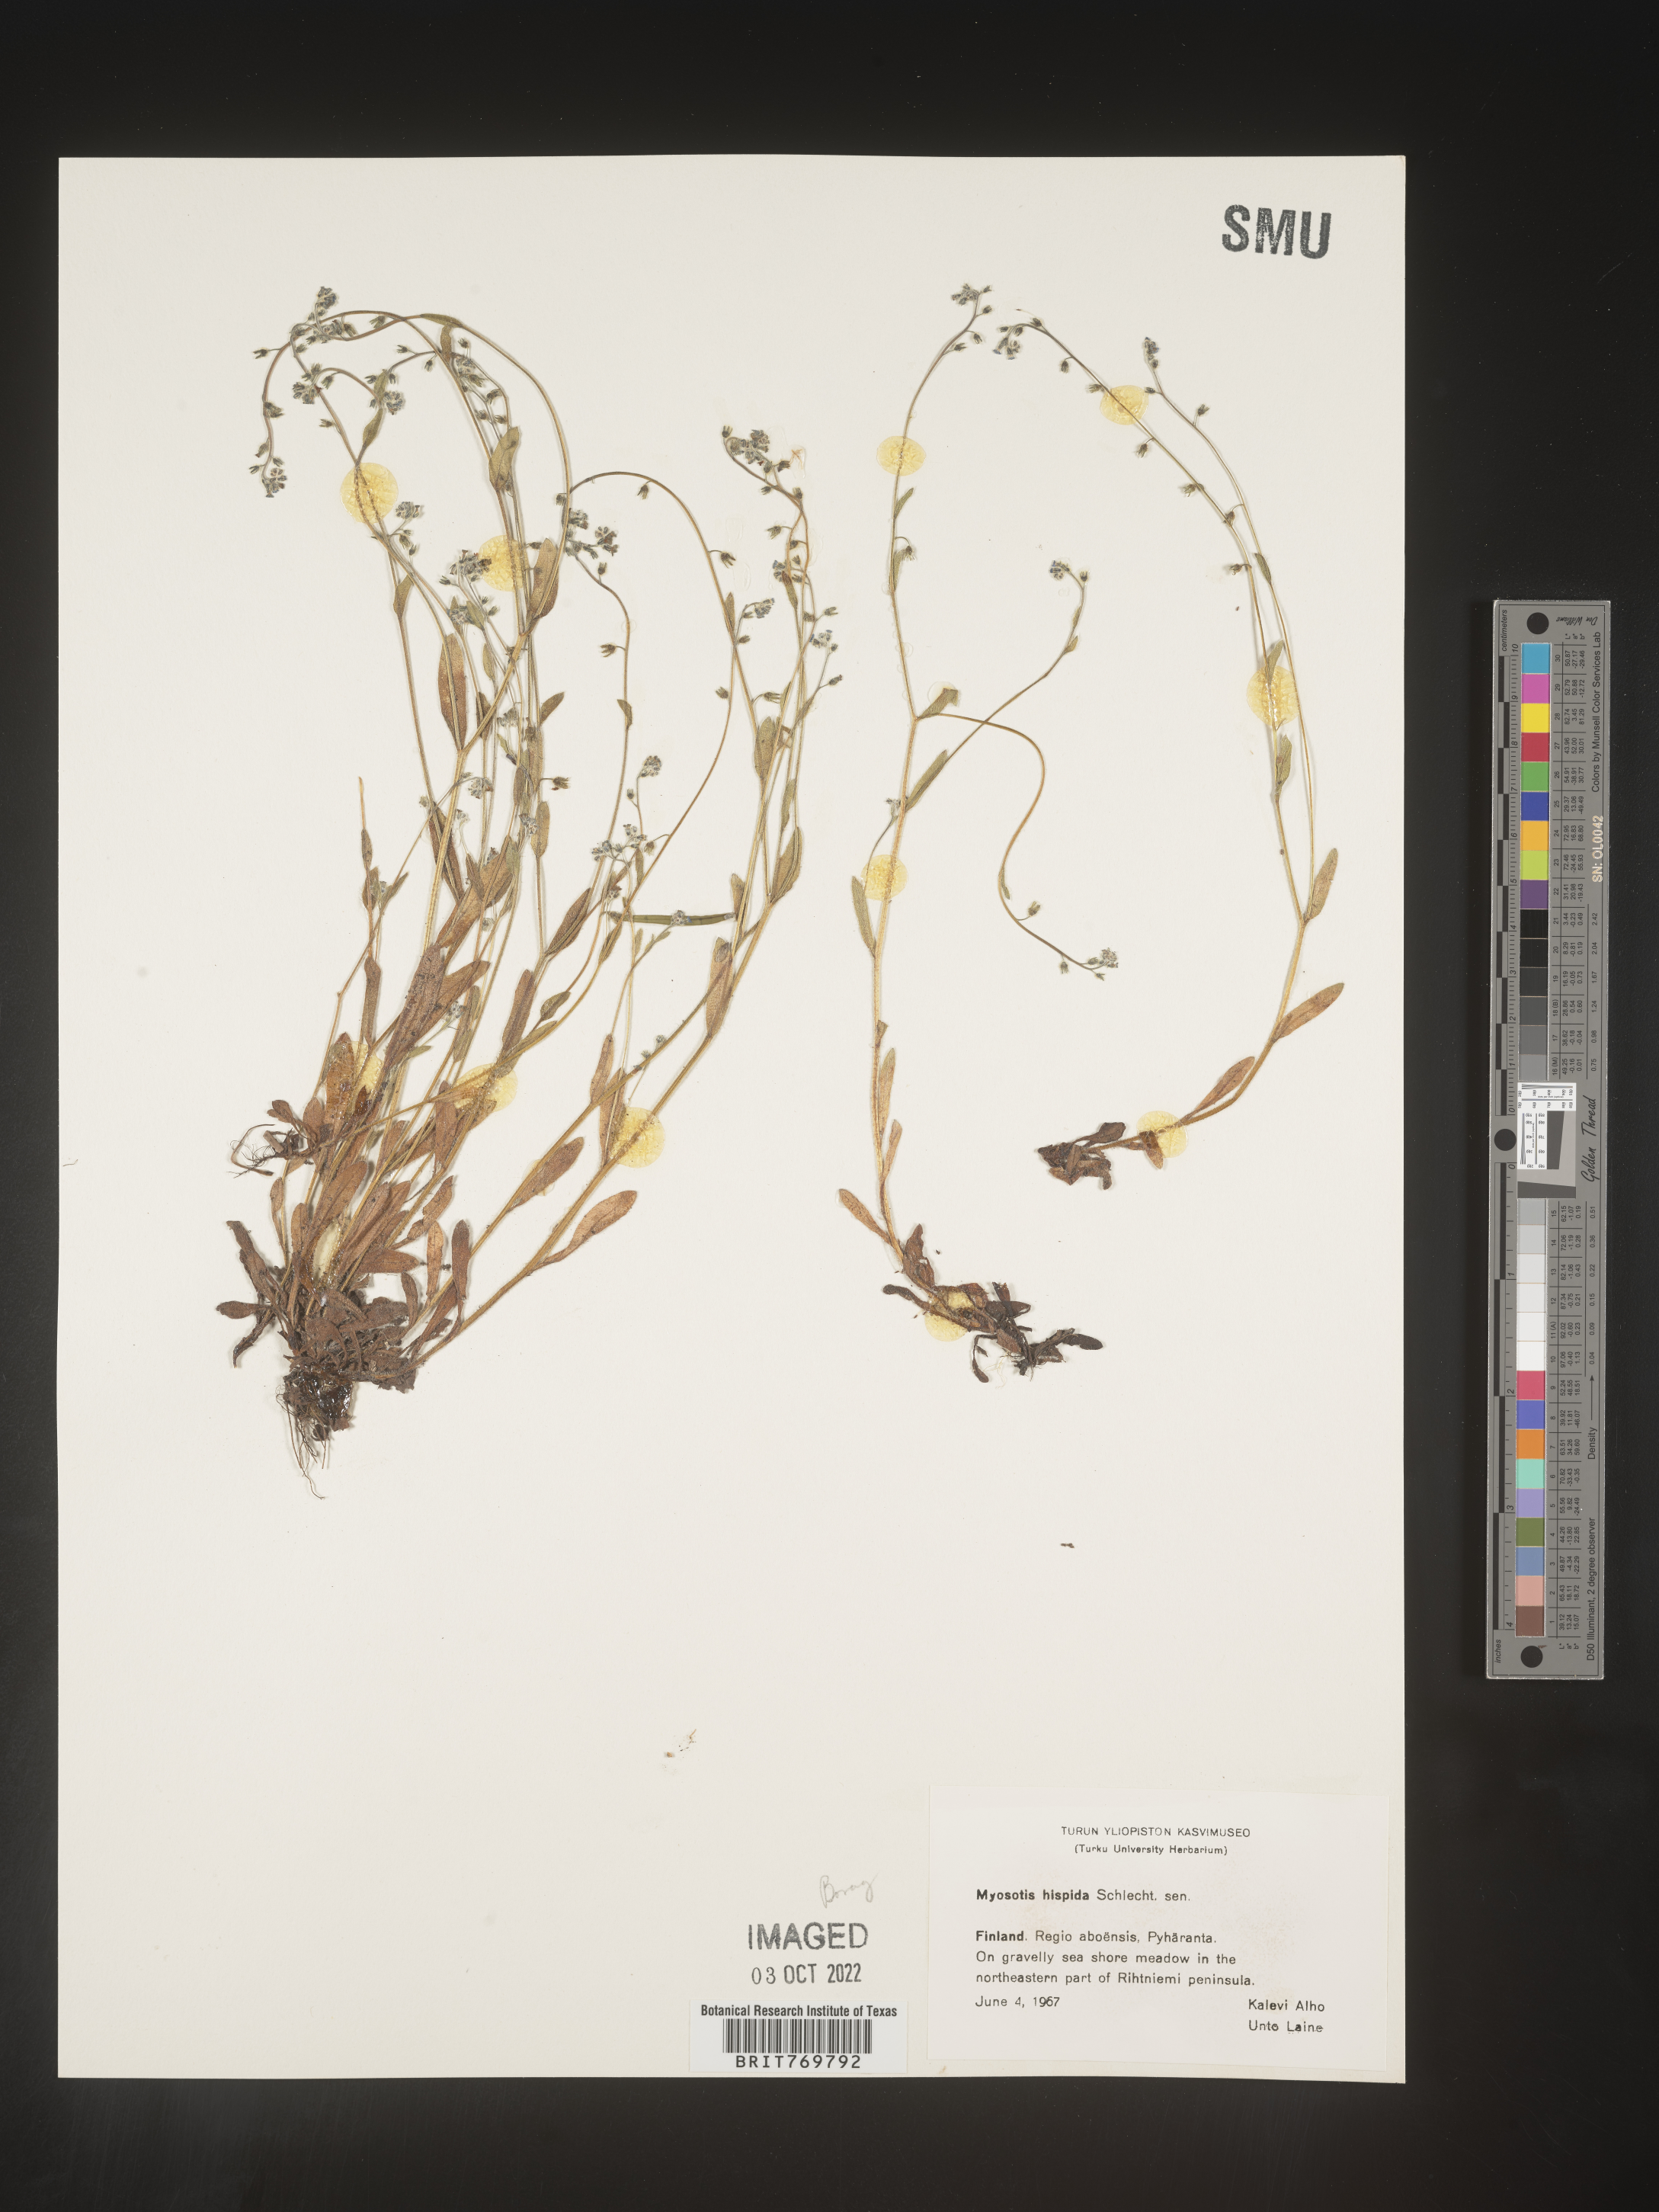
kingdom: Plantae
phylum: Tracheophyta
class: Magnoliopsida
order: Boraginales
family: Boraginaceae
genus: Myosotis
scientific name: Myosotis
